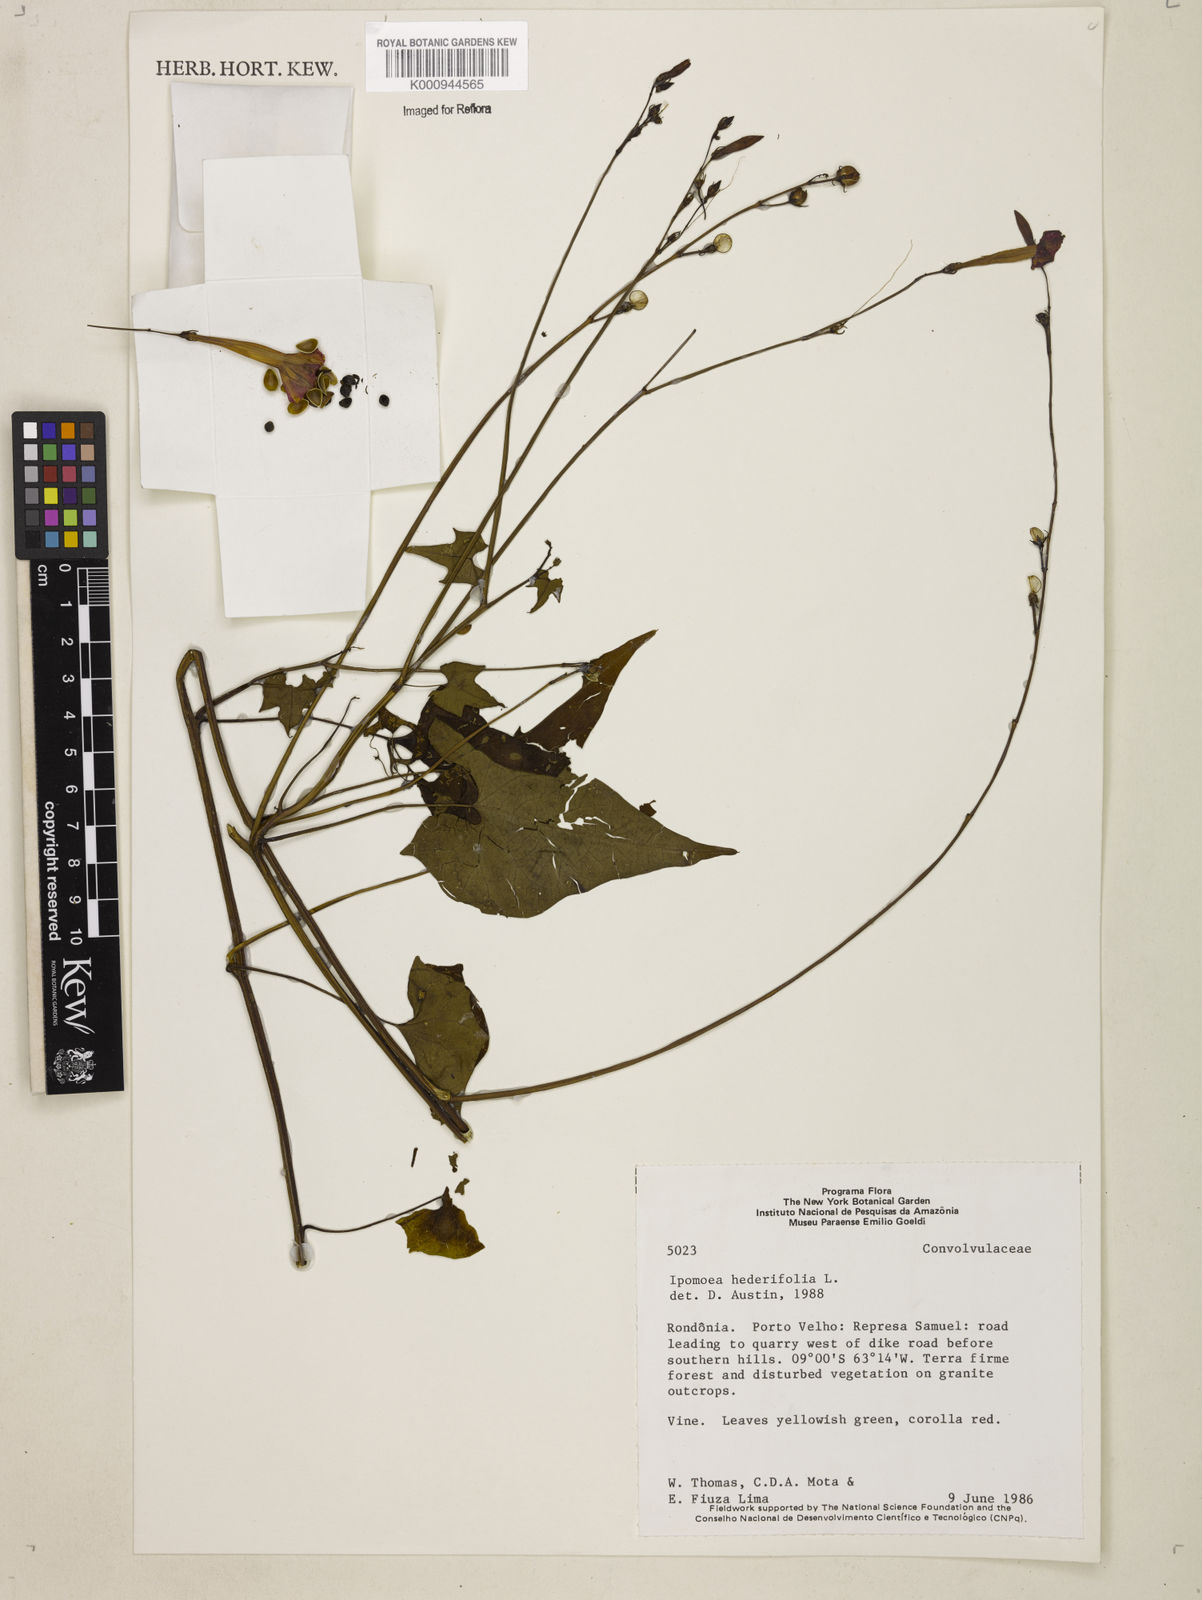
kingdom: Plantae
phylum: Tracheophyta
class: Magnoliopsida
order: Solanales
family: Convolvulaceae
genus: Ipomoea
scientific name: Ipomoea hederifolia
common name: Ivy-leaf morning-glory
